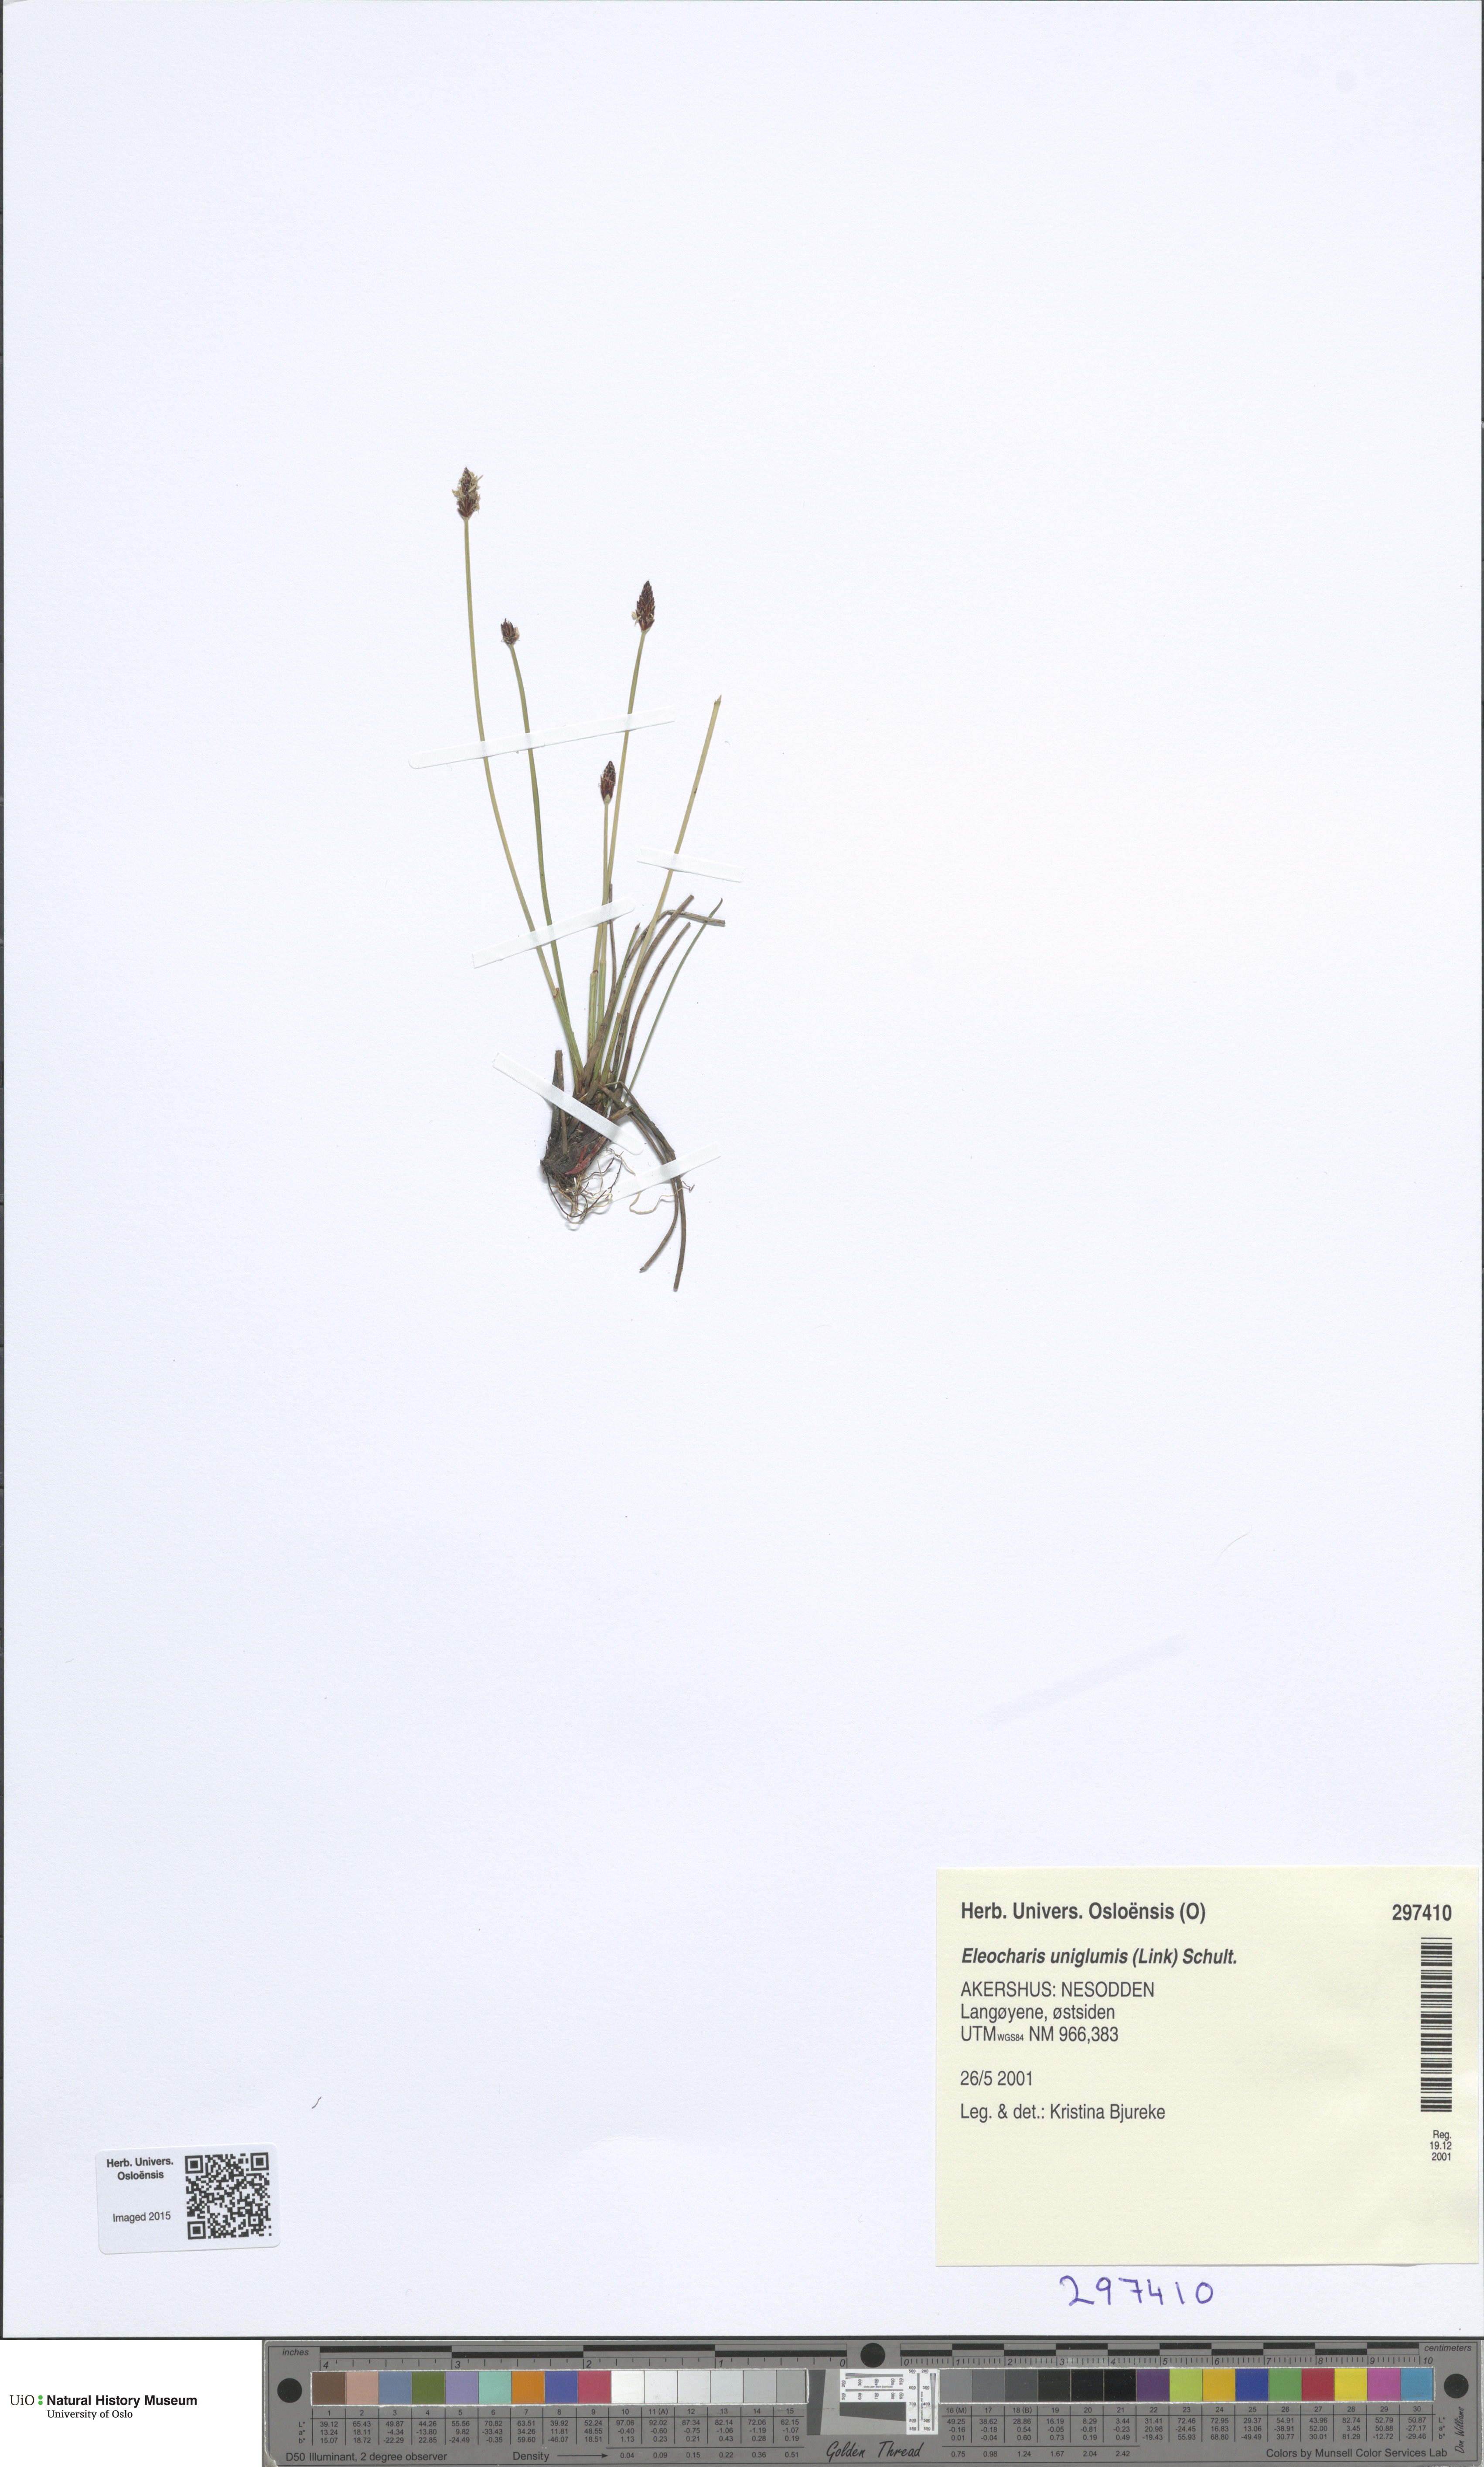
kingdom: Plantae
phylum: Tracheophyta
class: Liliopsida
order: Poales
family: Cyperaceae
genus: Eleocharis
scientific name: Eleocharis uniglumis
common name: Slender spike-rush
